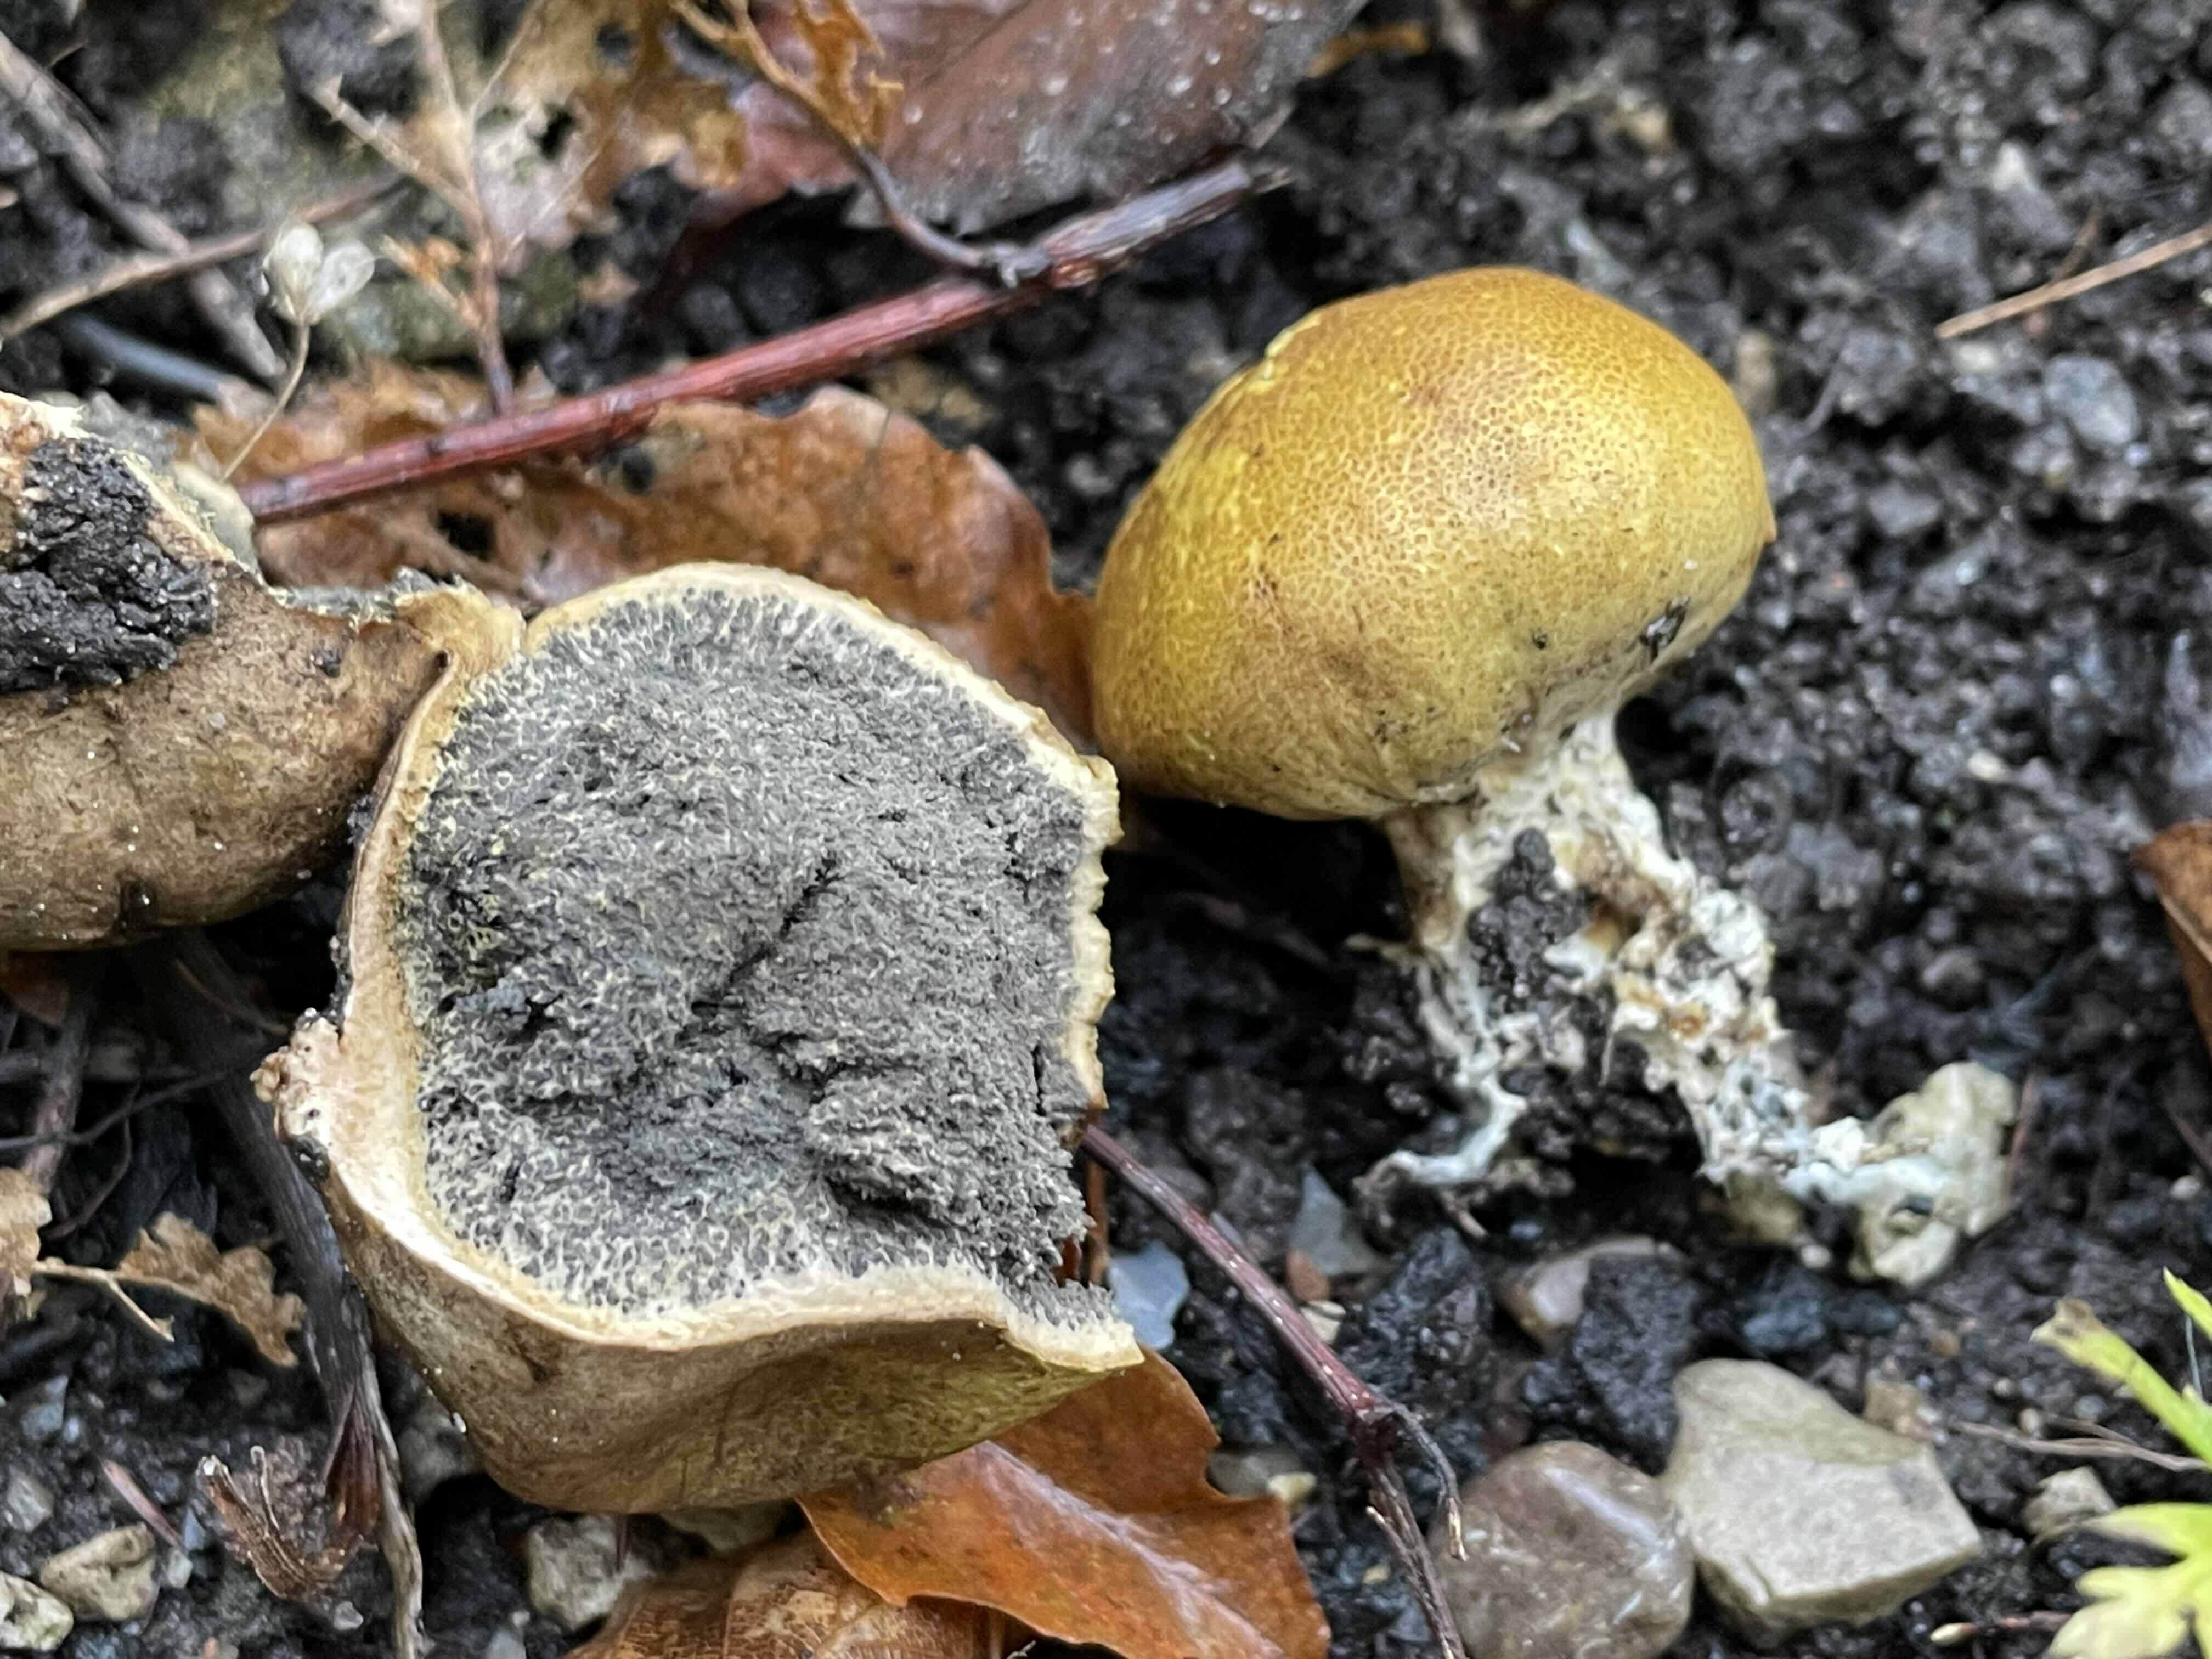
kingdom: Fungi
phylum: Basidiomycota
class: Agaricomycetes
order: Boletales
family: Sclerodermataceae
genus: Scleroderma
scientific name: Scleroderma areolatum
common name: plettet bruskbold
